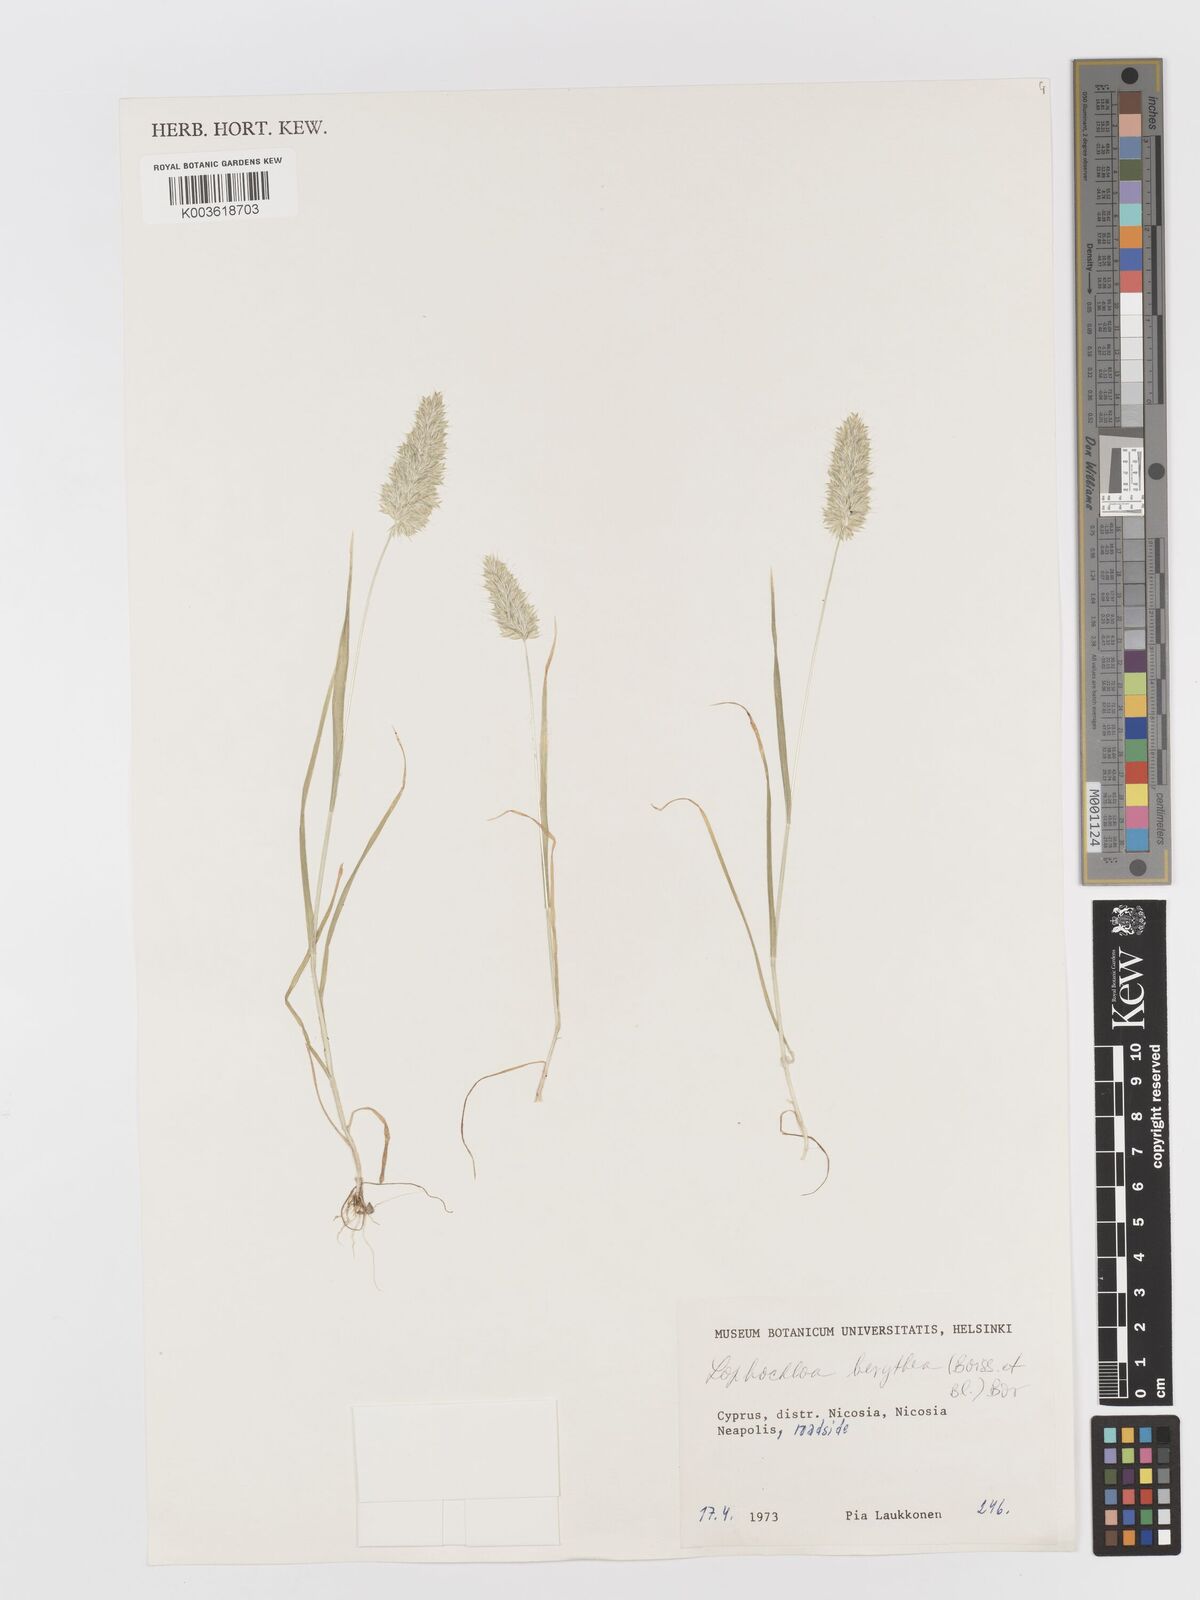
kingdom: Plantae
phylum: Tracheophyta
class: Liliopsida
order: Poales
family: Poaceae
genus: Rostraria
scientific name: Rostraria smyrnaea
